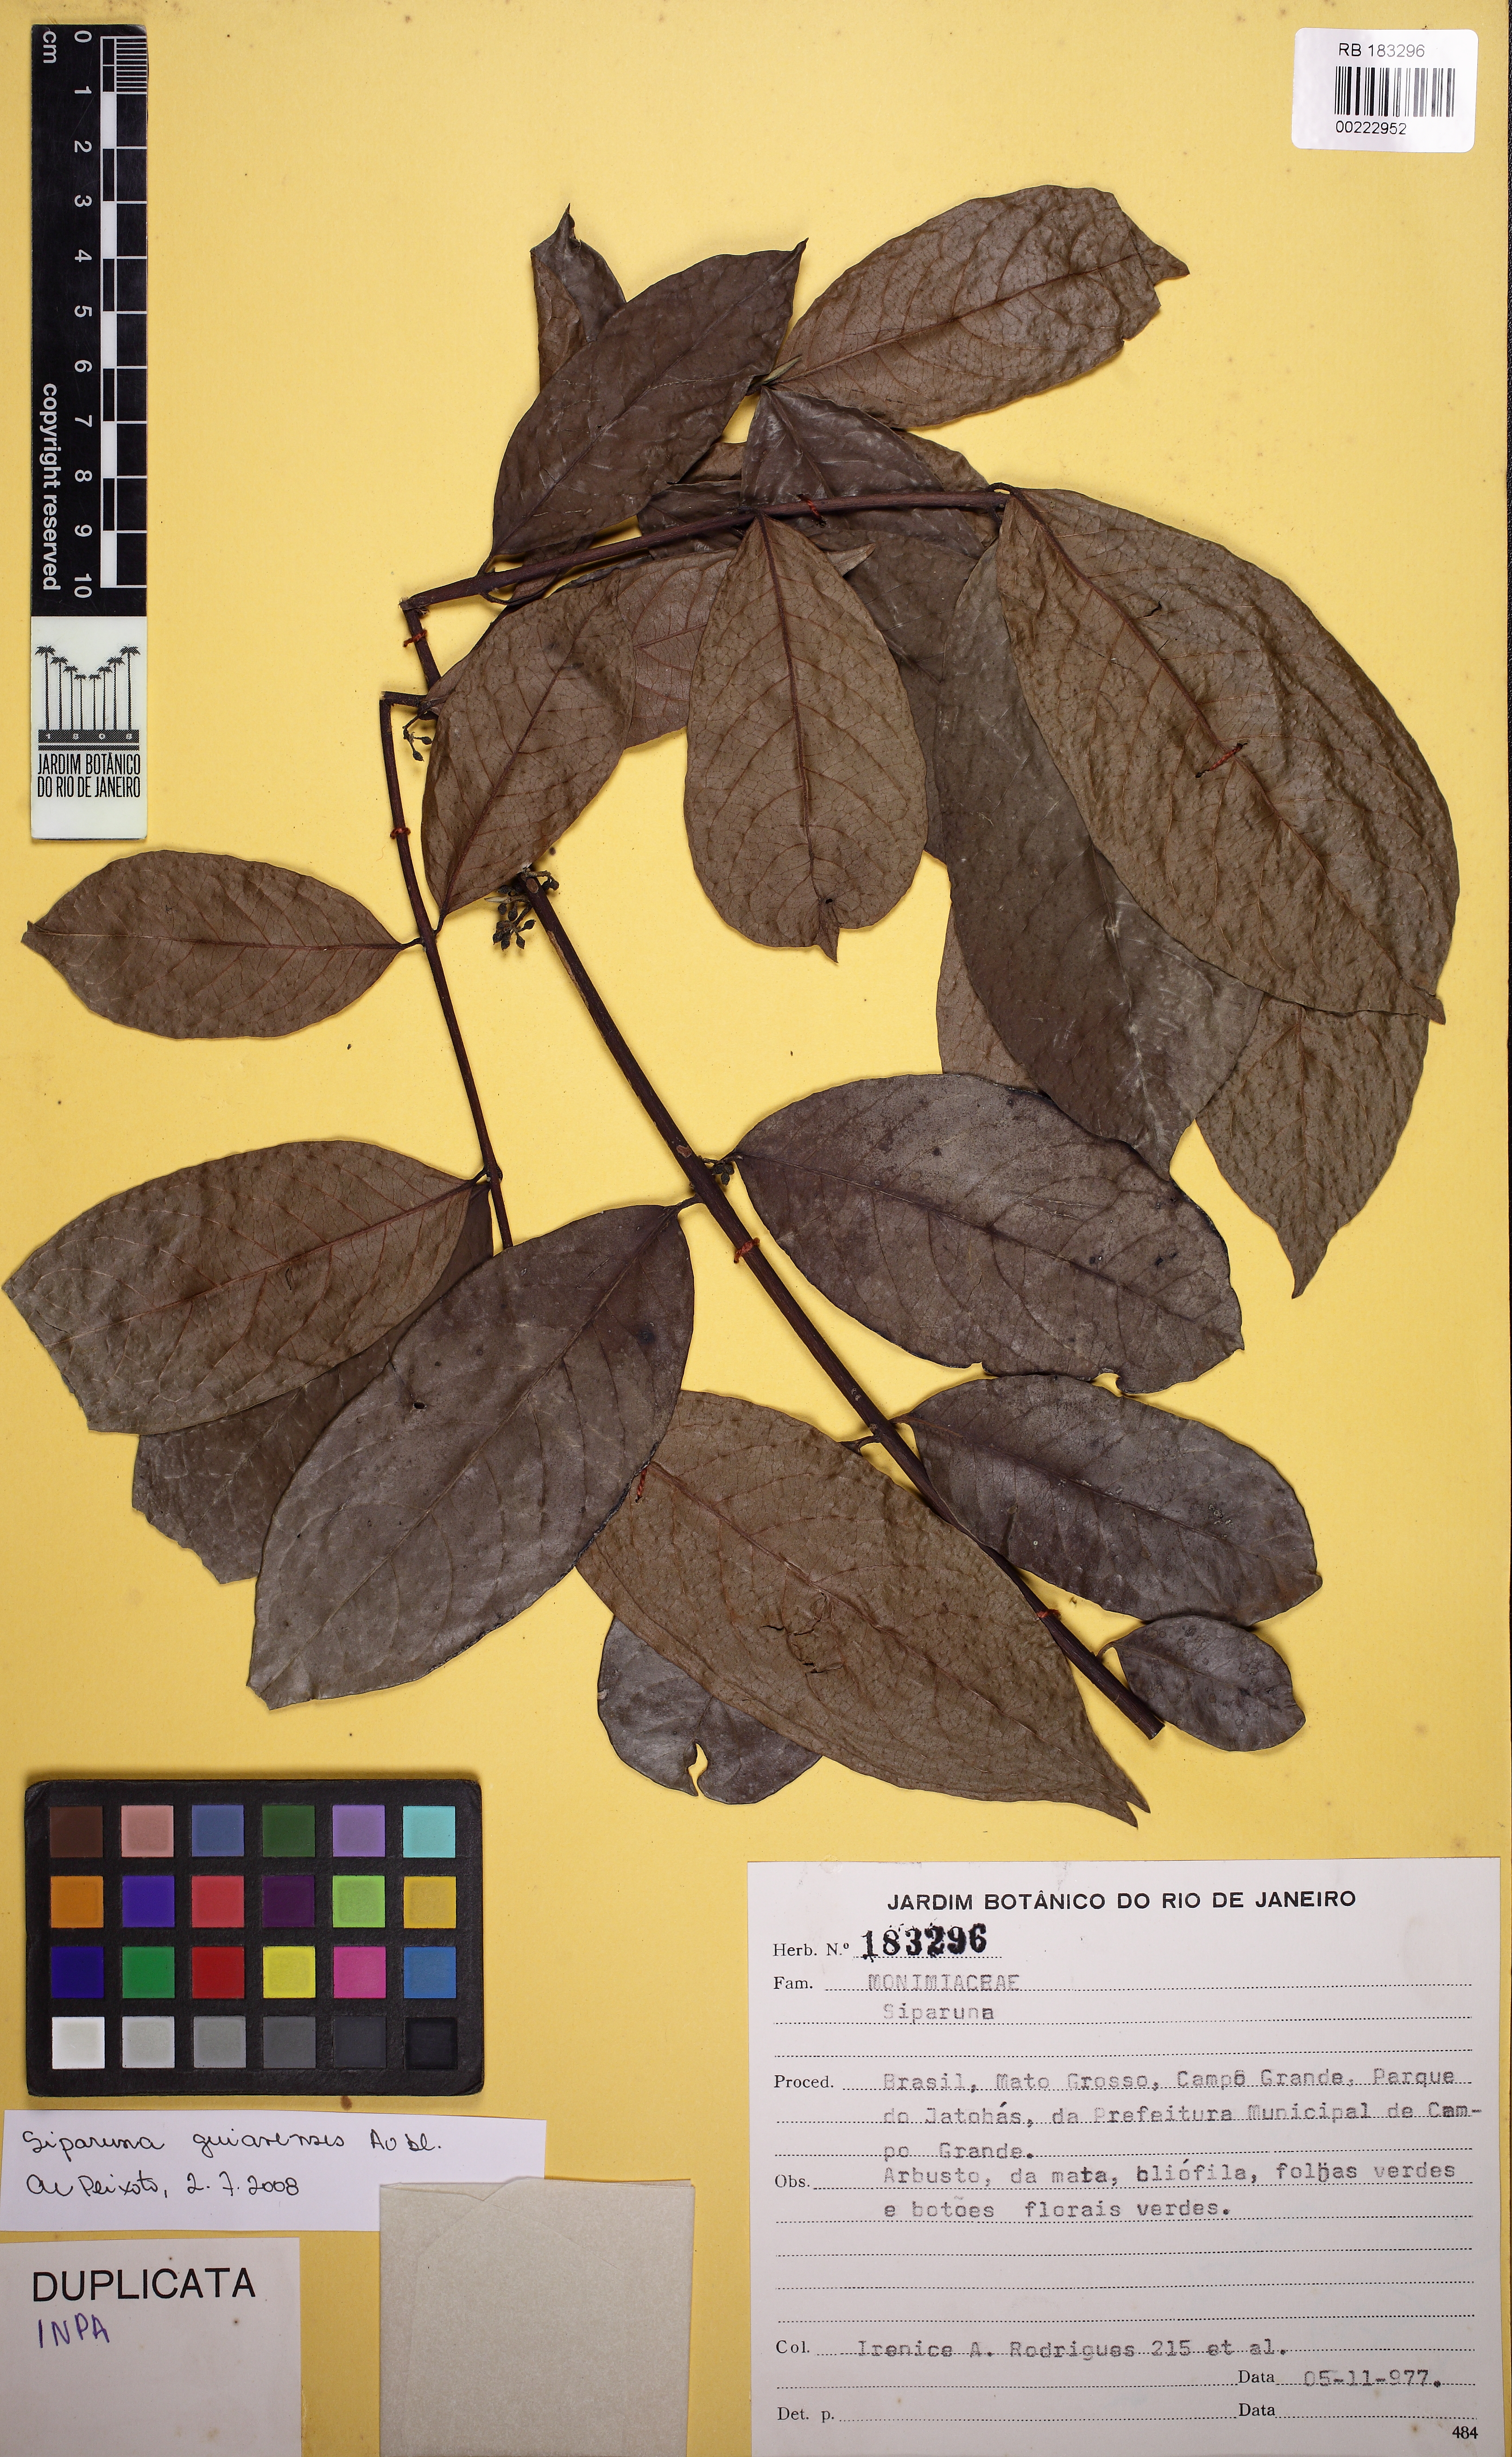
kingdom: Plantae
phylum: Tracheophyta
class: Magnoliopsida
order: Laurales
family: Siparunaceae
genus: Siparuna
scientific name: Siparuna guianensis
